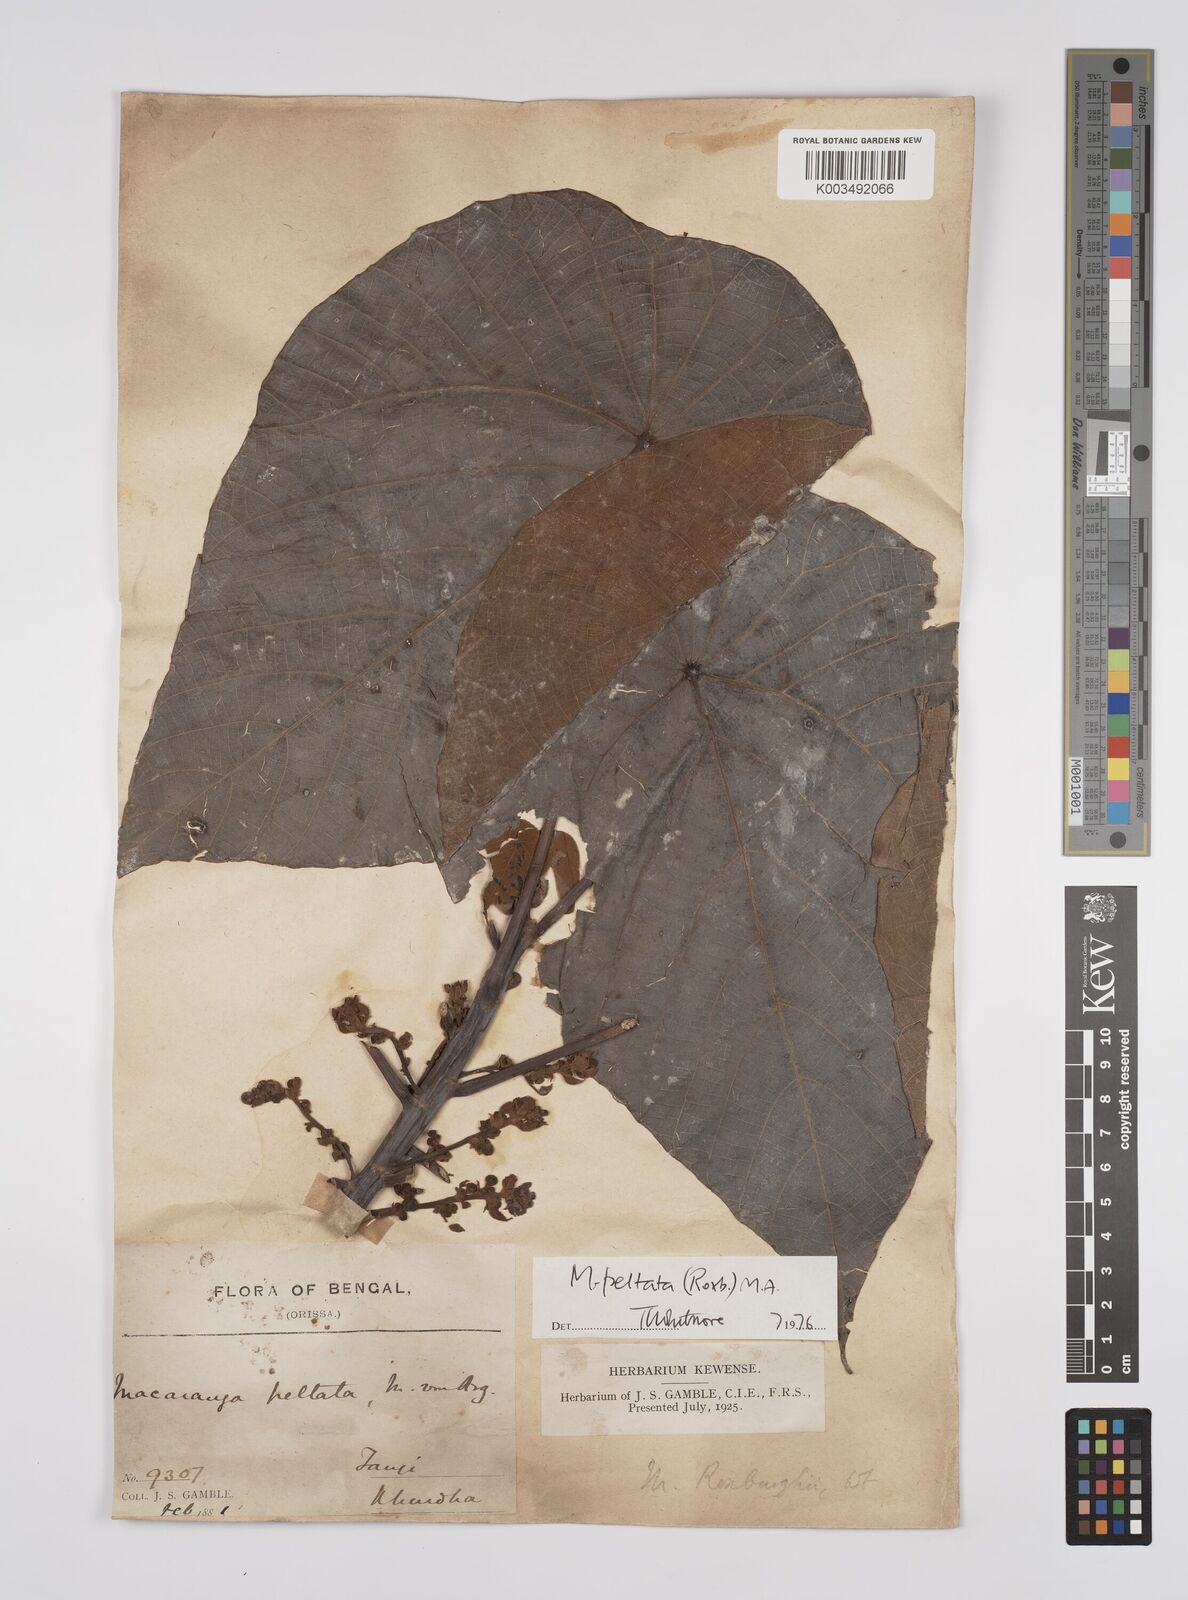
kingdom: Plantae
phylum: Tracheophyta
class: Magnoliopsida
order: Malpighiales
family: Euphorbiaceae
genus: Macaranga
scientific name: Macaranga peltata
